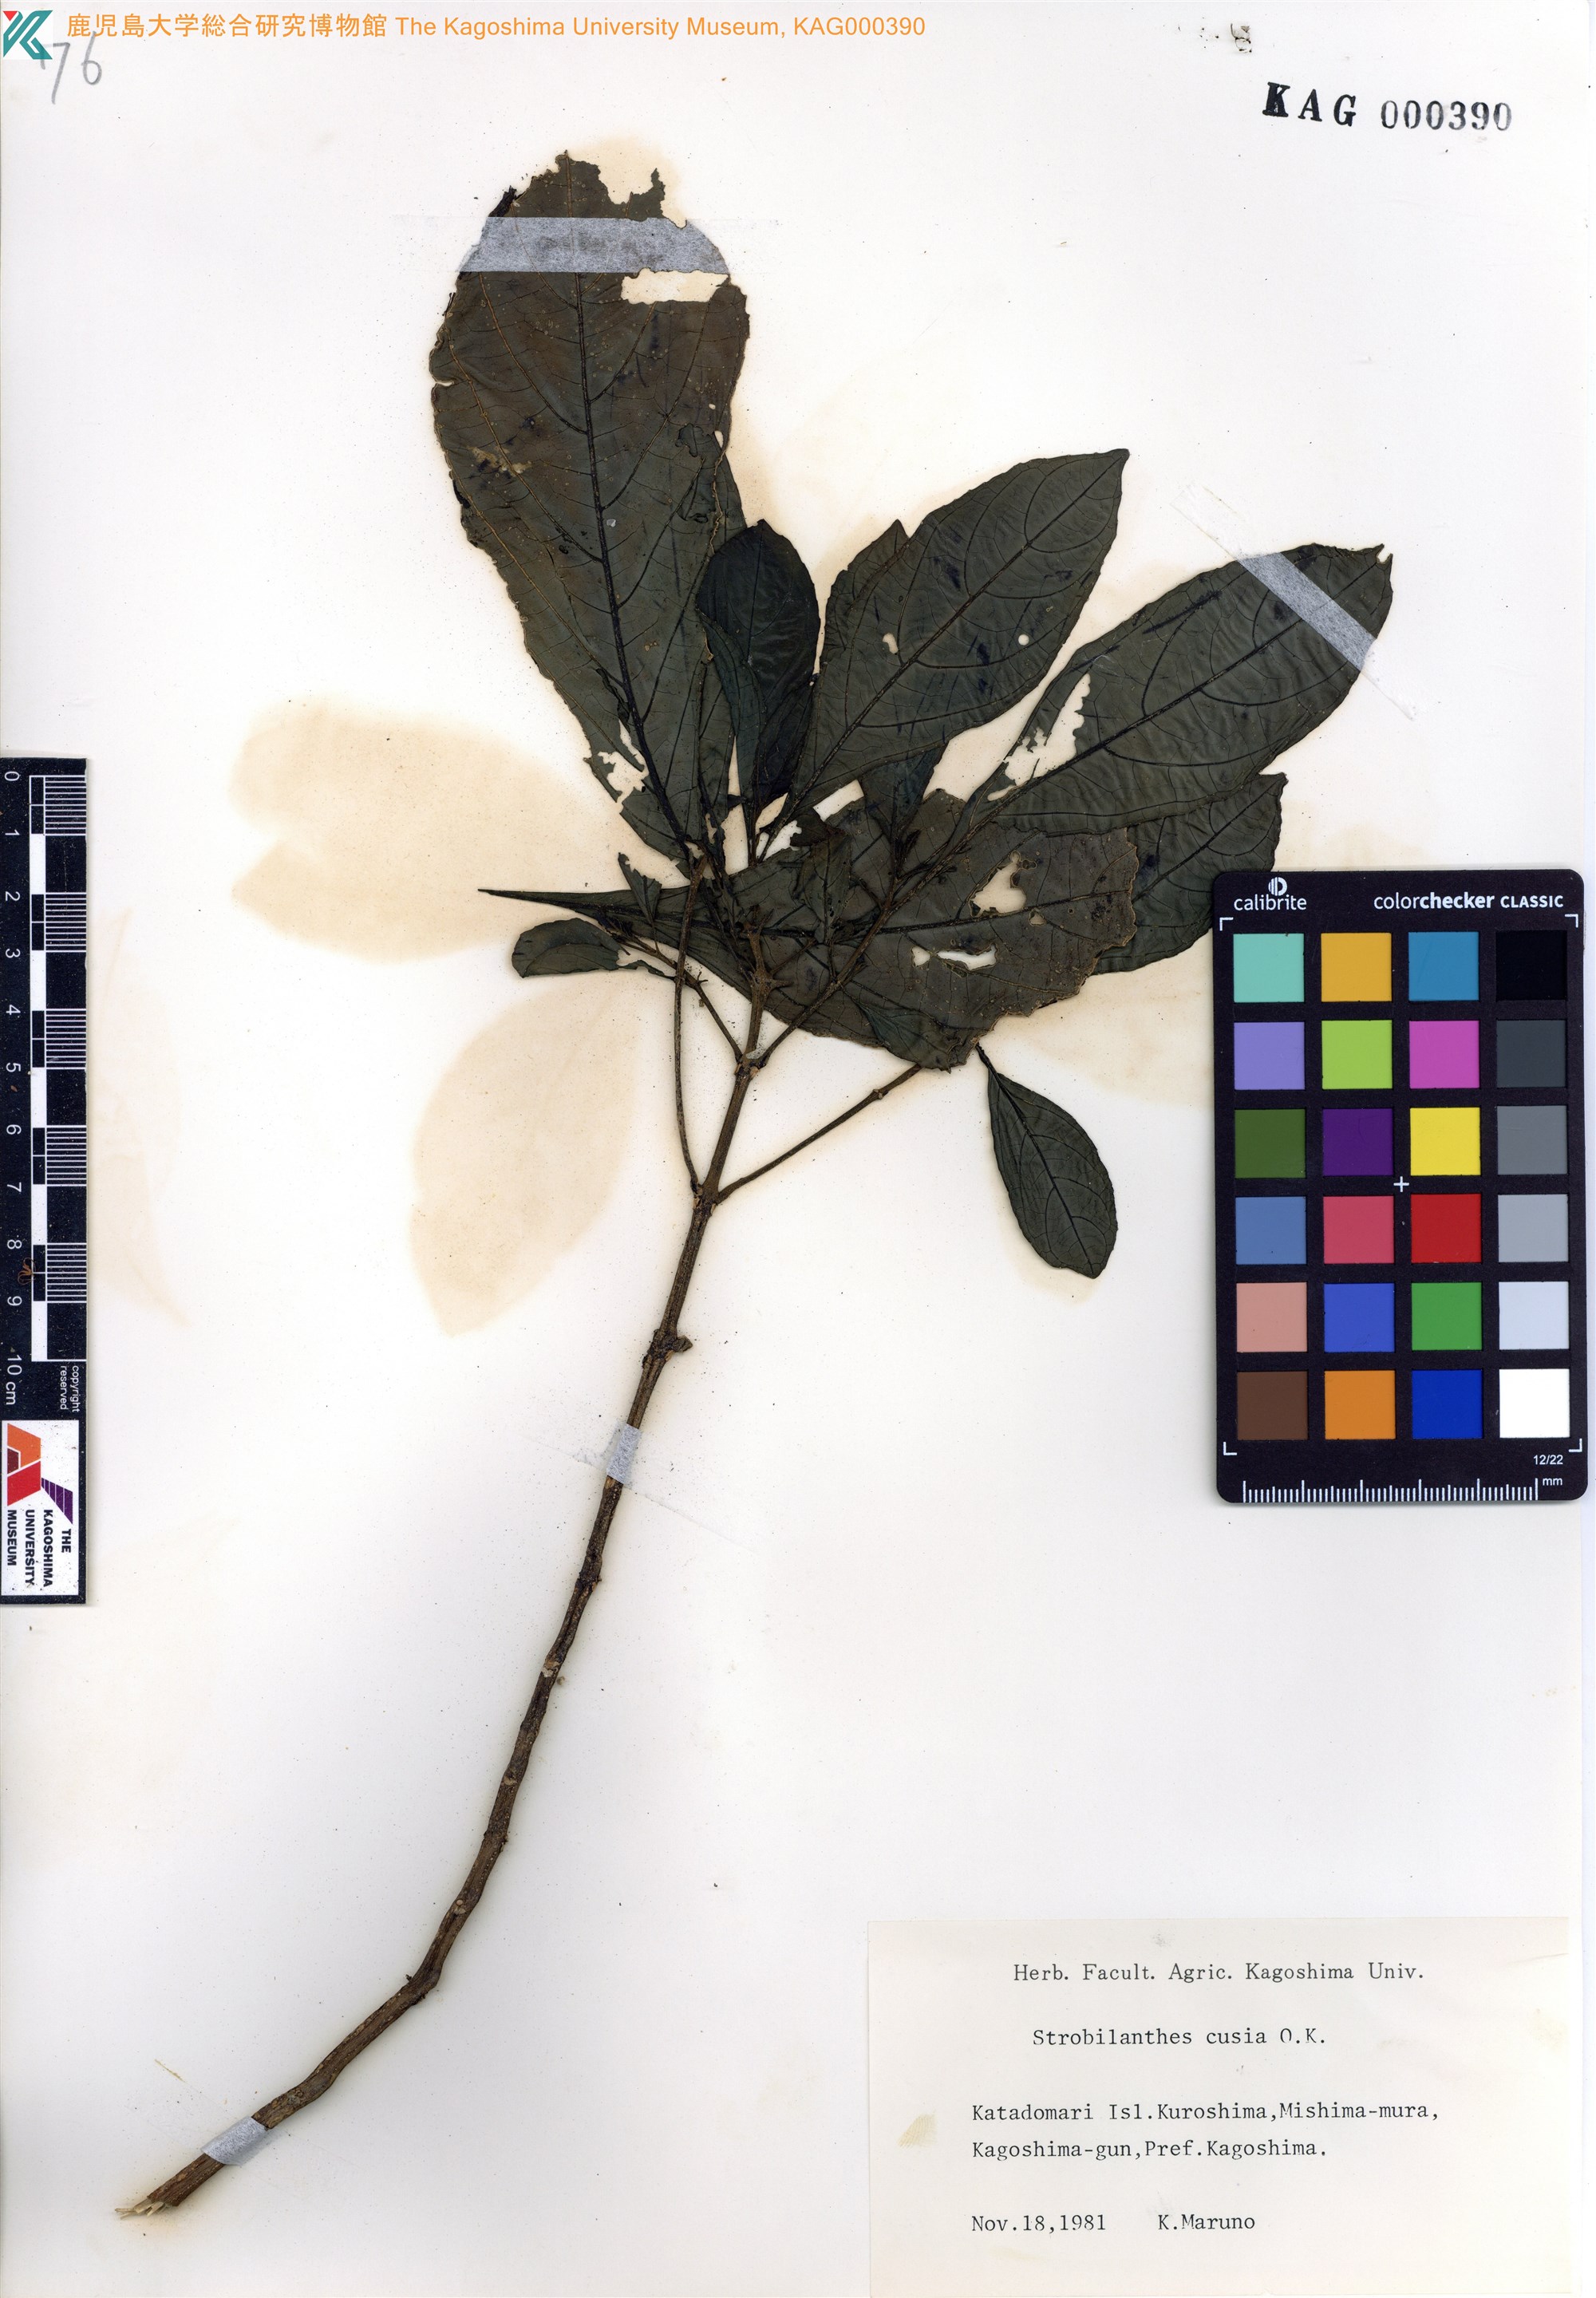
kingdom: Plantae
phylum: Tracheophyta
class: Magnoliopsida
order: Lamiales
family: Acanthaceae
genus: Strobilanthes
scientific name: Strobilanthes cusia
